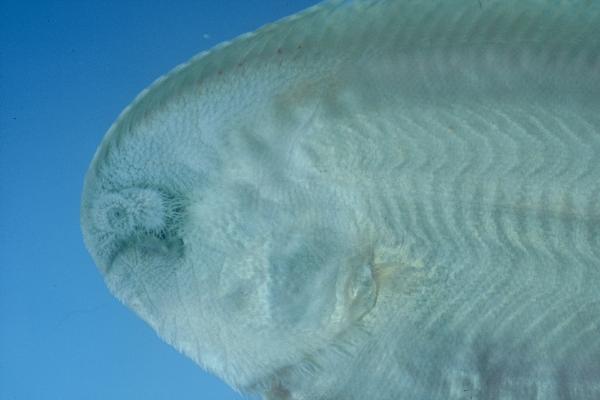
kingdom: Animalia
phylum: Chordata
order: Pleuronectiformes
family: Soleidae
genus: Synaptura
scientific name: Synaptura marginata
